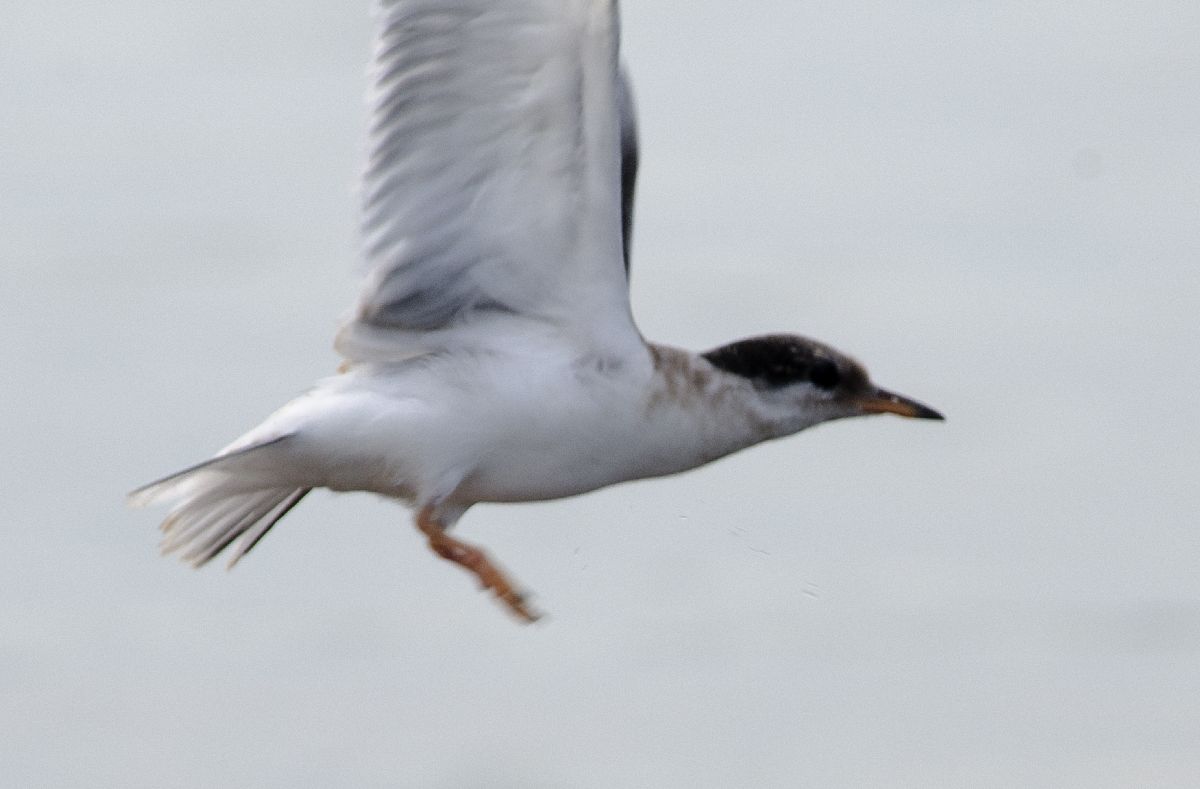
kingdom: Animalia
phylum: Chordata
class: Aves
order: Charadriiformes
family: Laridae
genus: Sterna
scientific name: Sterna hirundo
